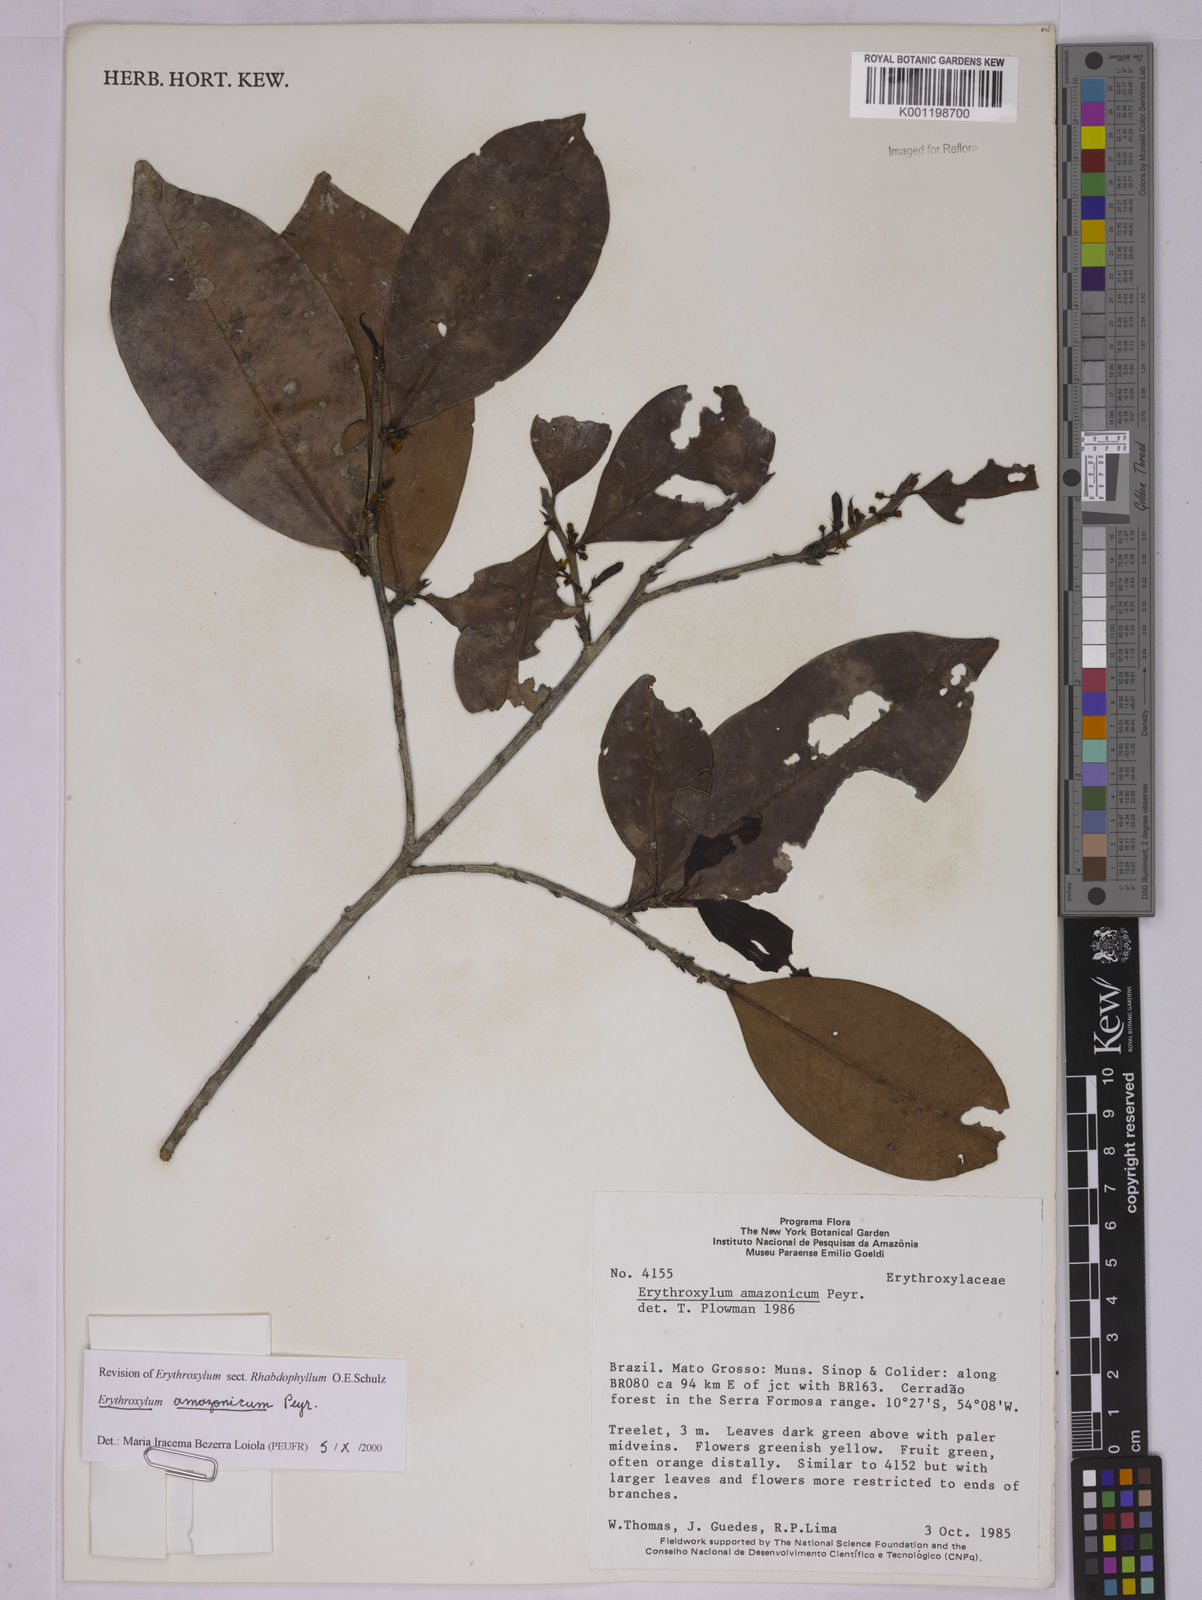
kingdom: Plantae
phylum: Tracheophyta
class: Magnoliopsida
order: Malpighiales
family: Erythroxylaceae
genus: Erythroxylum
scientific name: Erythroxylum amazonicum
